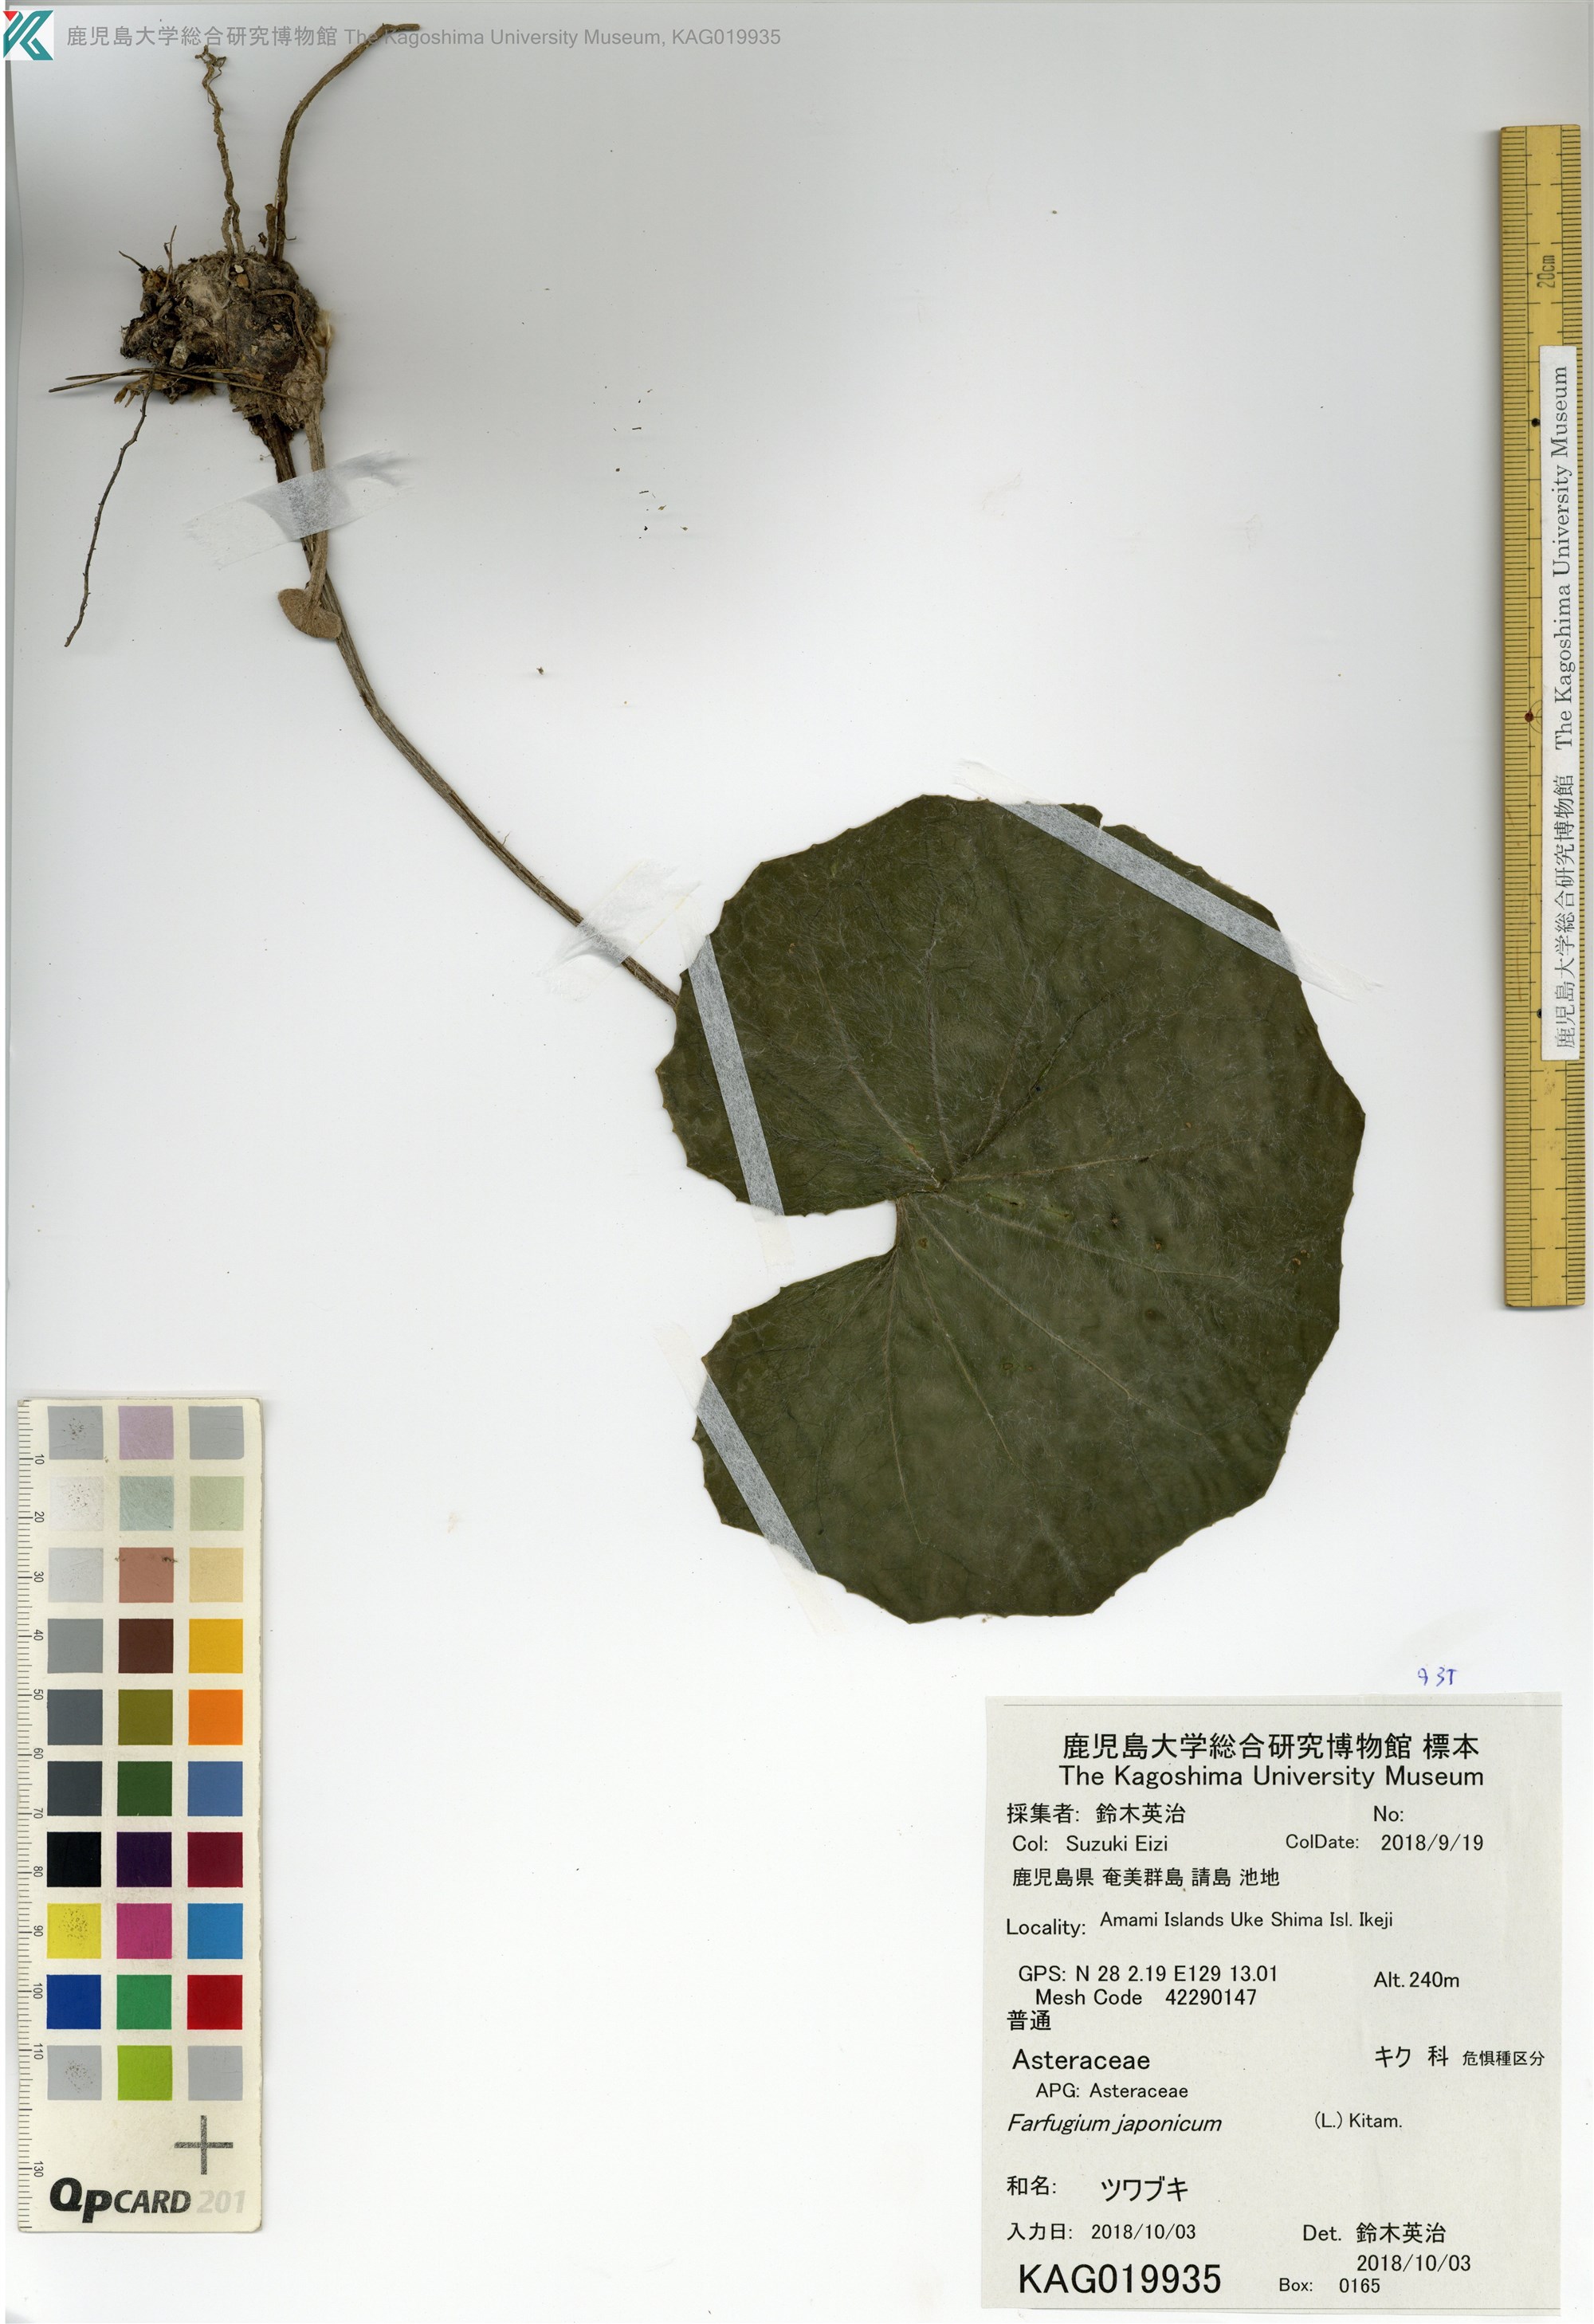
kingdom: Plantae
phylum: Tracheophyta
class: Magnoliopsida
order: Asterales
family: Asteraceae
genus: Farfugium
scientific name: Farfugium japonicum
